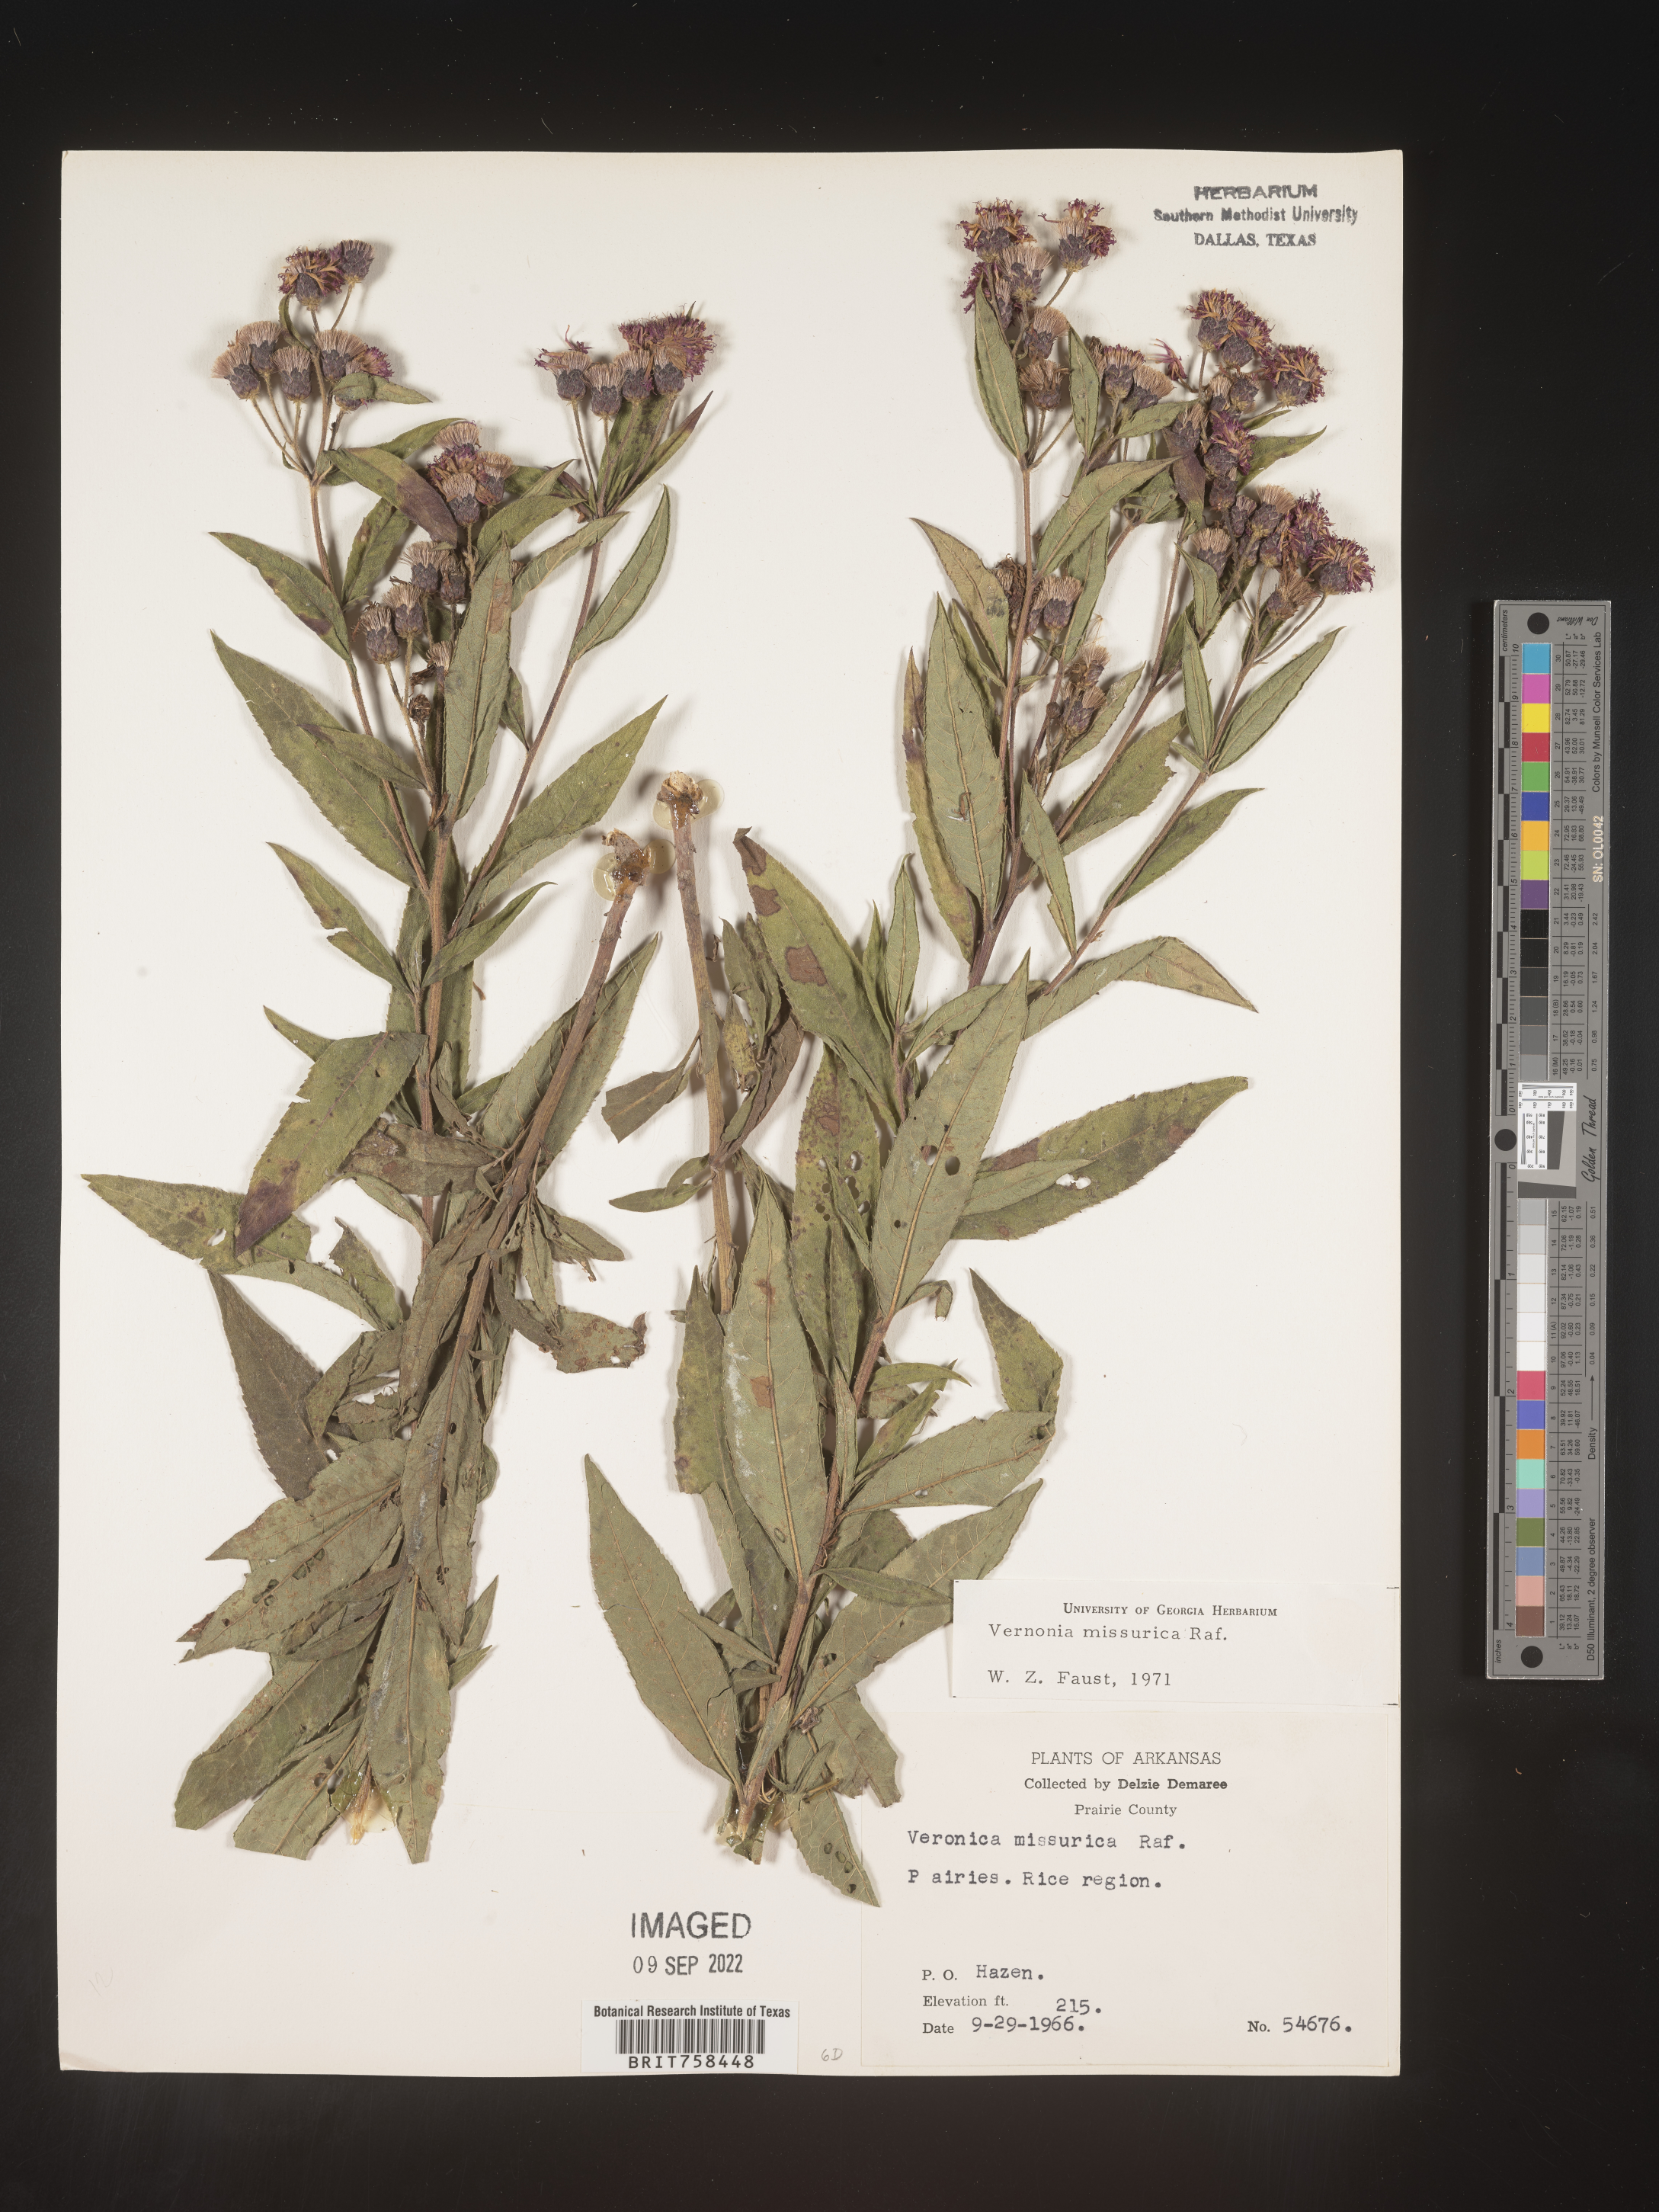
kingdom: Plantae
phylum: Tracheophyta
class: Magnoliopsida
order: Asterales
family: Asteraceae
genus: Vernonia
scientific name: Vernonia missurica
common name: Missouri ironweed
